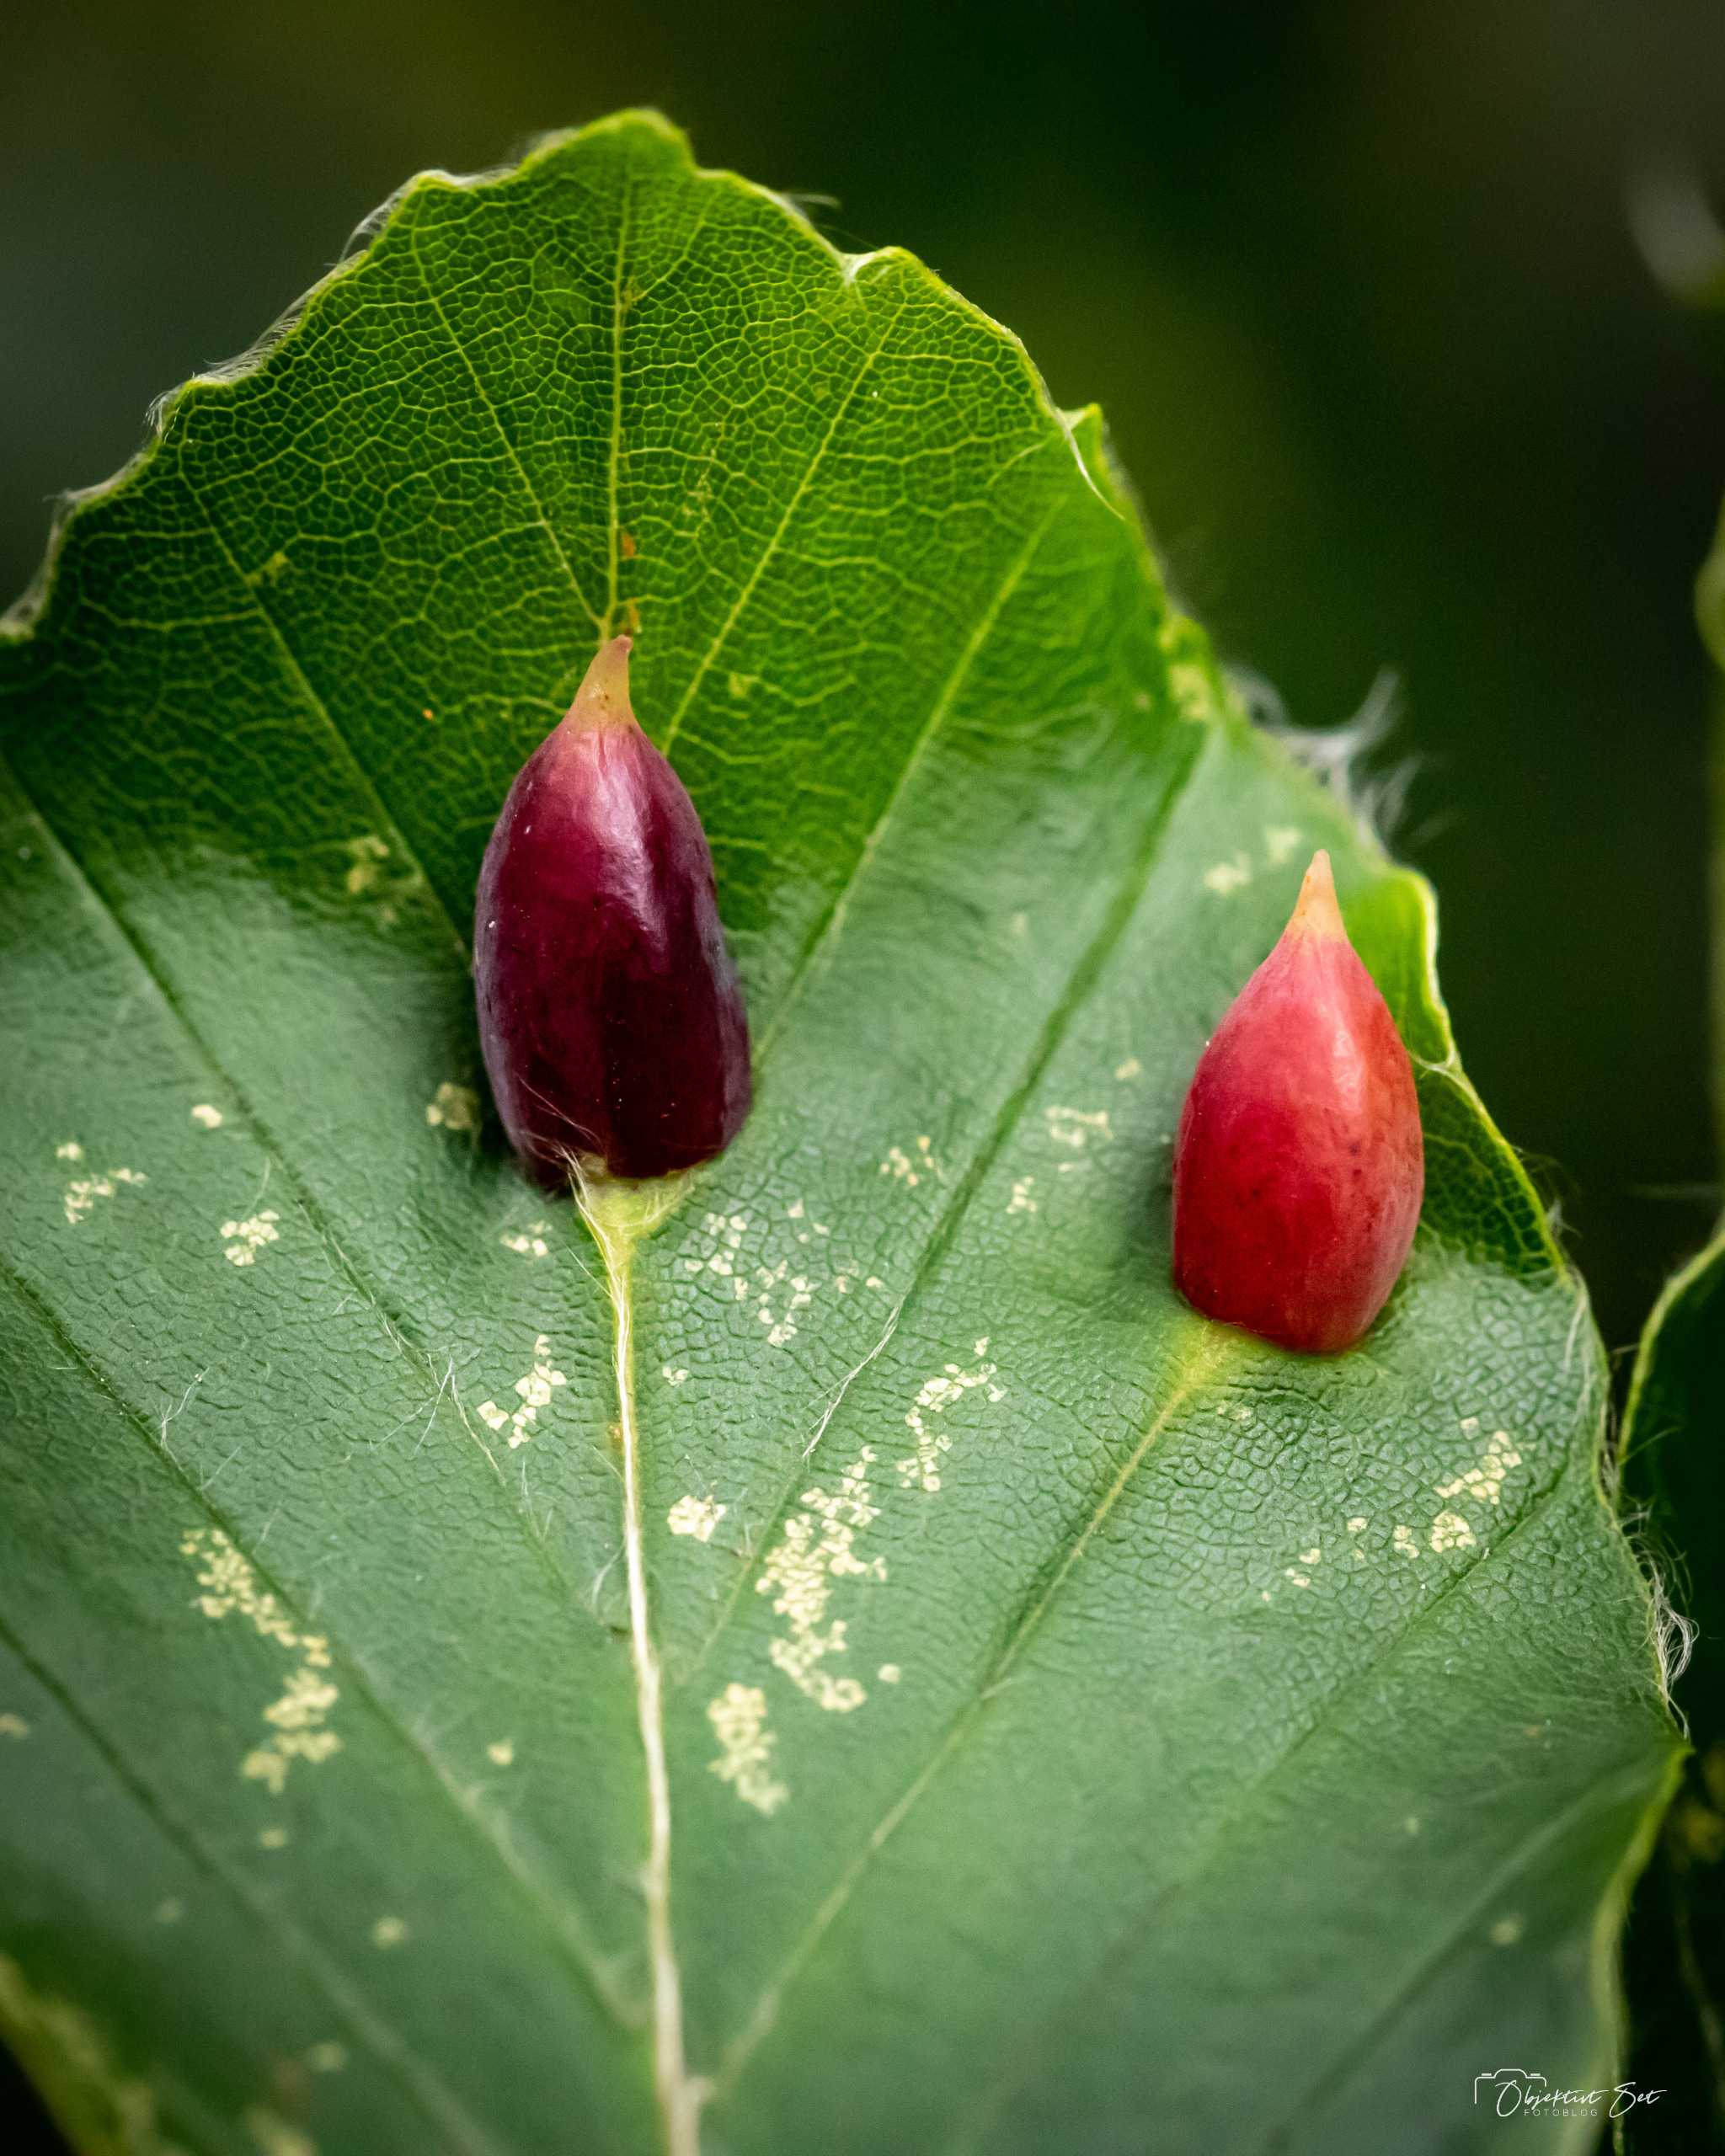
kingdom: Animalia
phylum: Arthropoda
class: Insecta
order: Diptera
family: Cecidomyiidae
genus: Mikiola
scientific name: Mikiola fagi
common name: Bøgegalmyg
